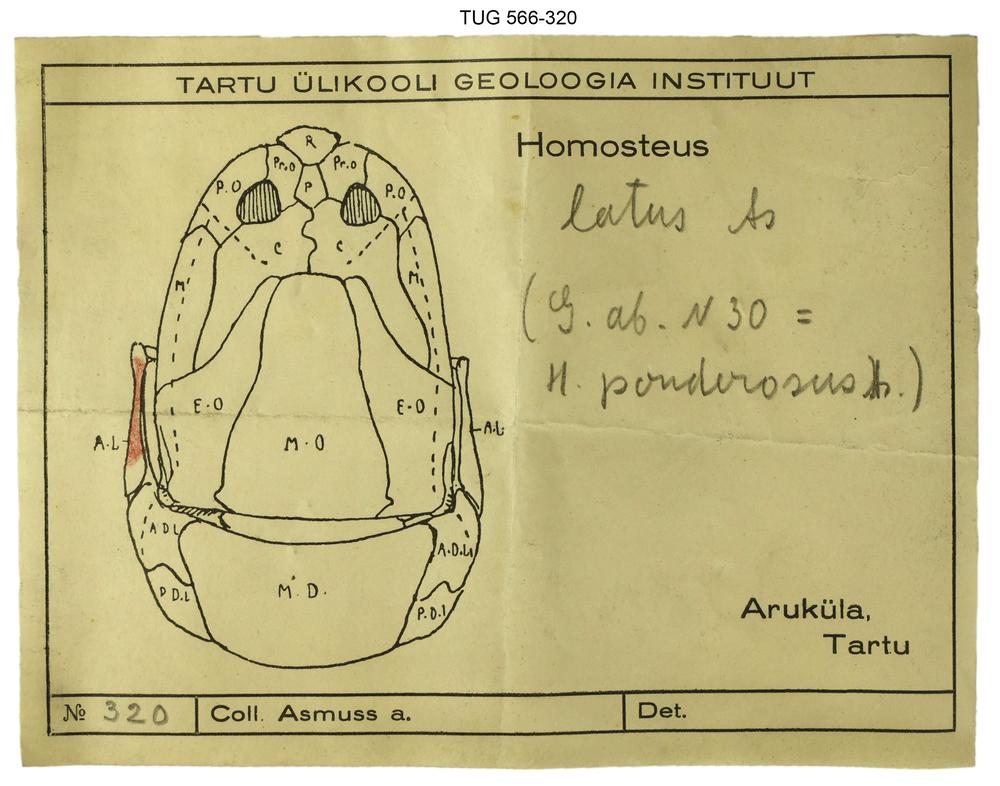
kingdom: Animalia
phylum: Chordata
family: Homostiidae
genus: Homostius
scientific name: Homostius
